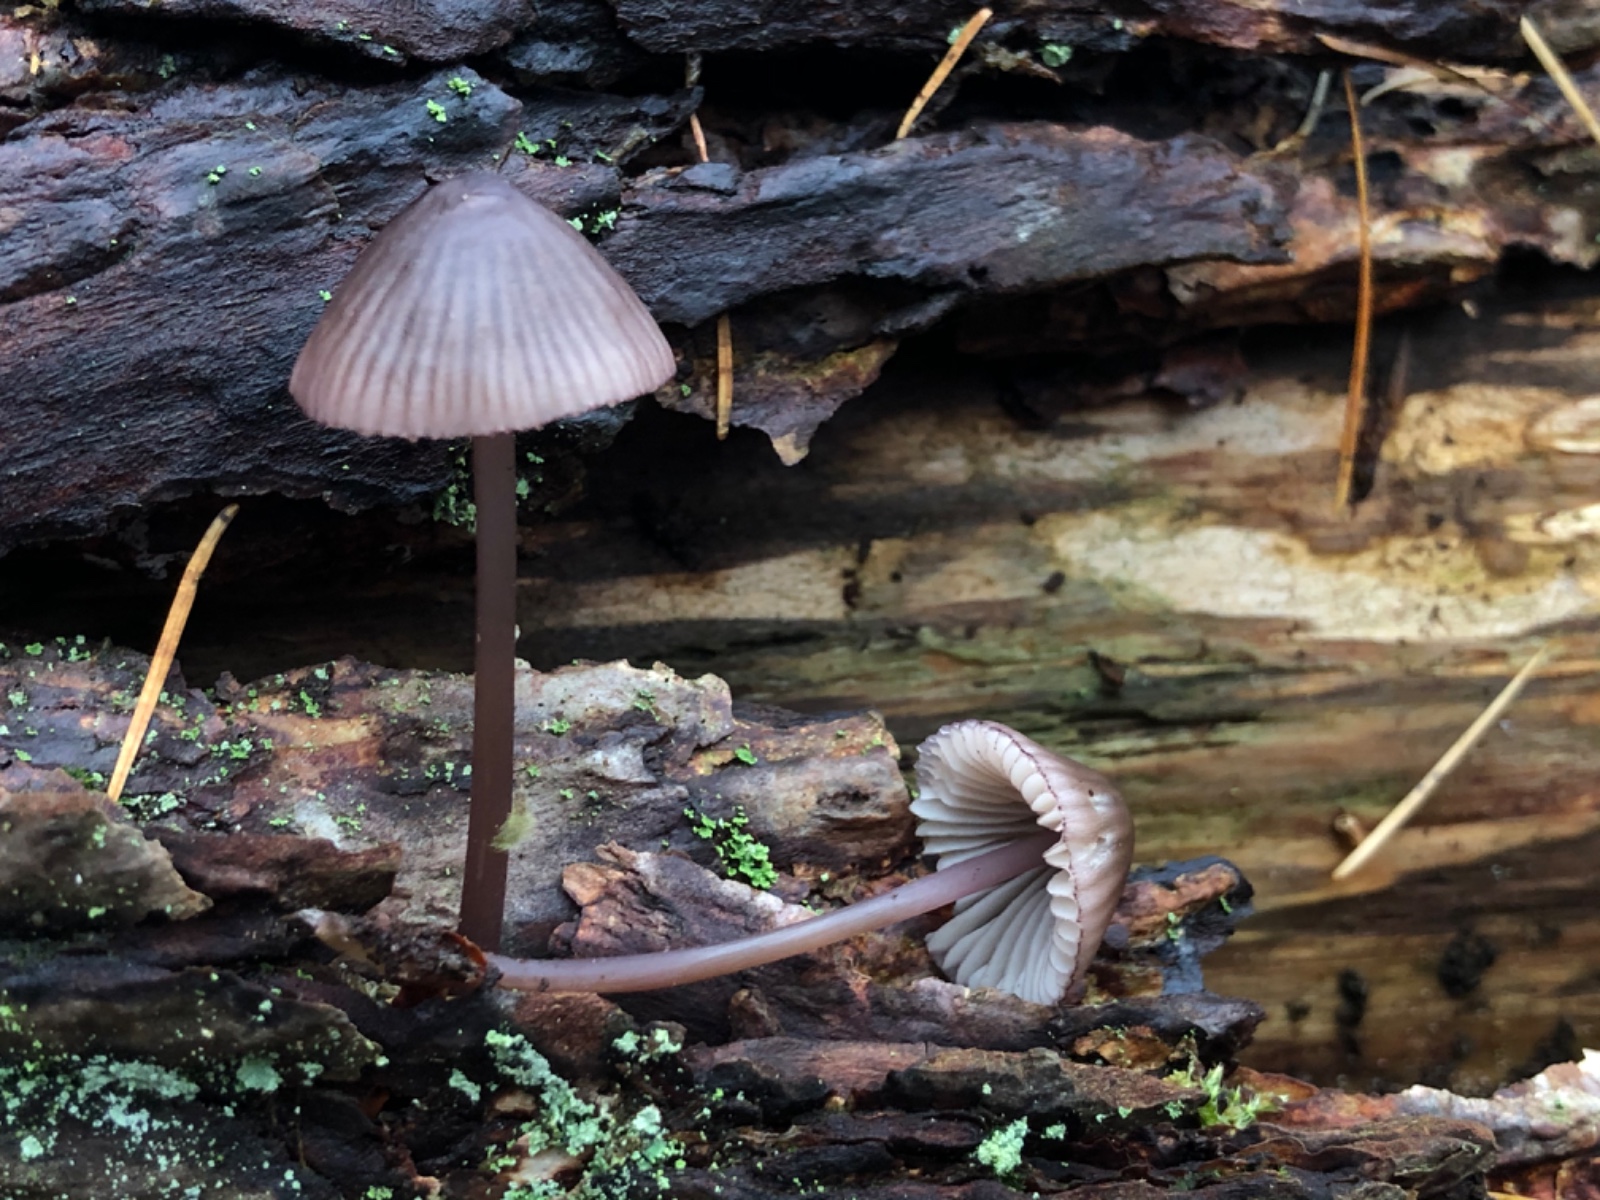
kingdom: Fungi
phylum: Basidiomycota
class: Agaricomycetes
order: Agaricales
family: Mycenaceae
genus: Mycena
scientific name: Mycena purpureofusca
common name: purpur-huesvamp
